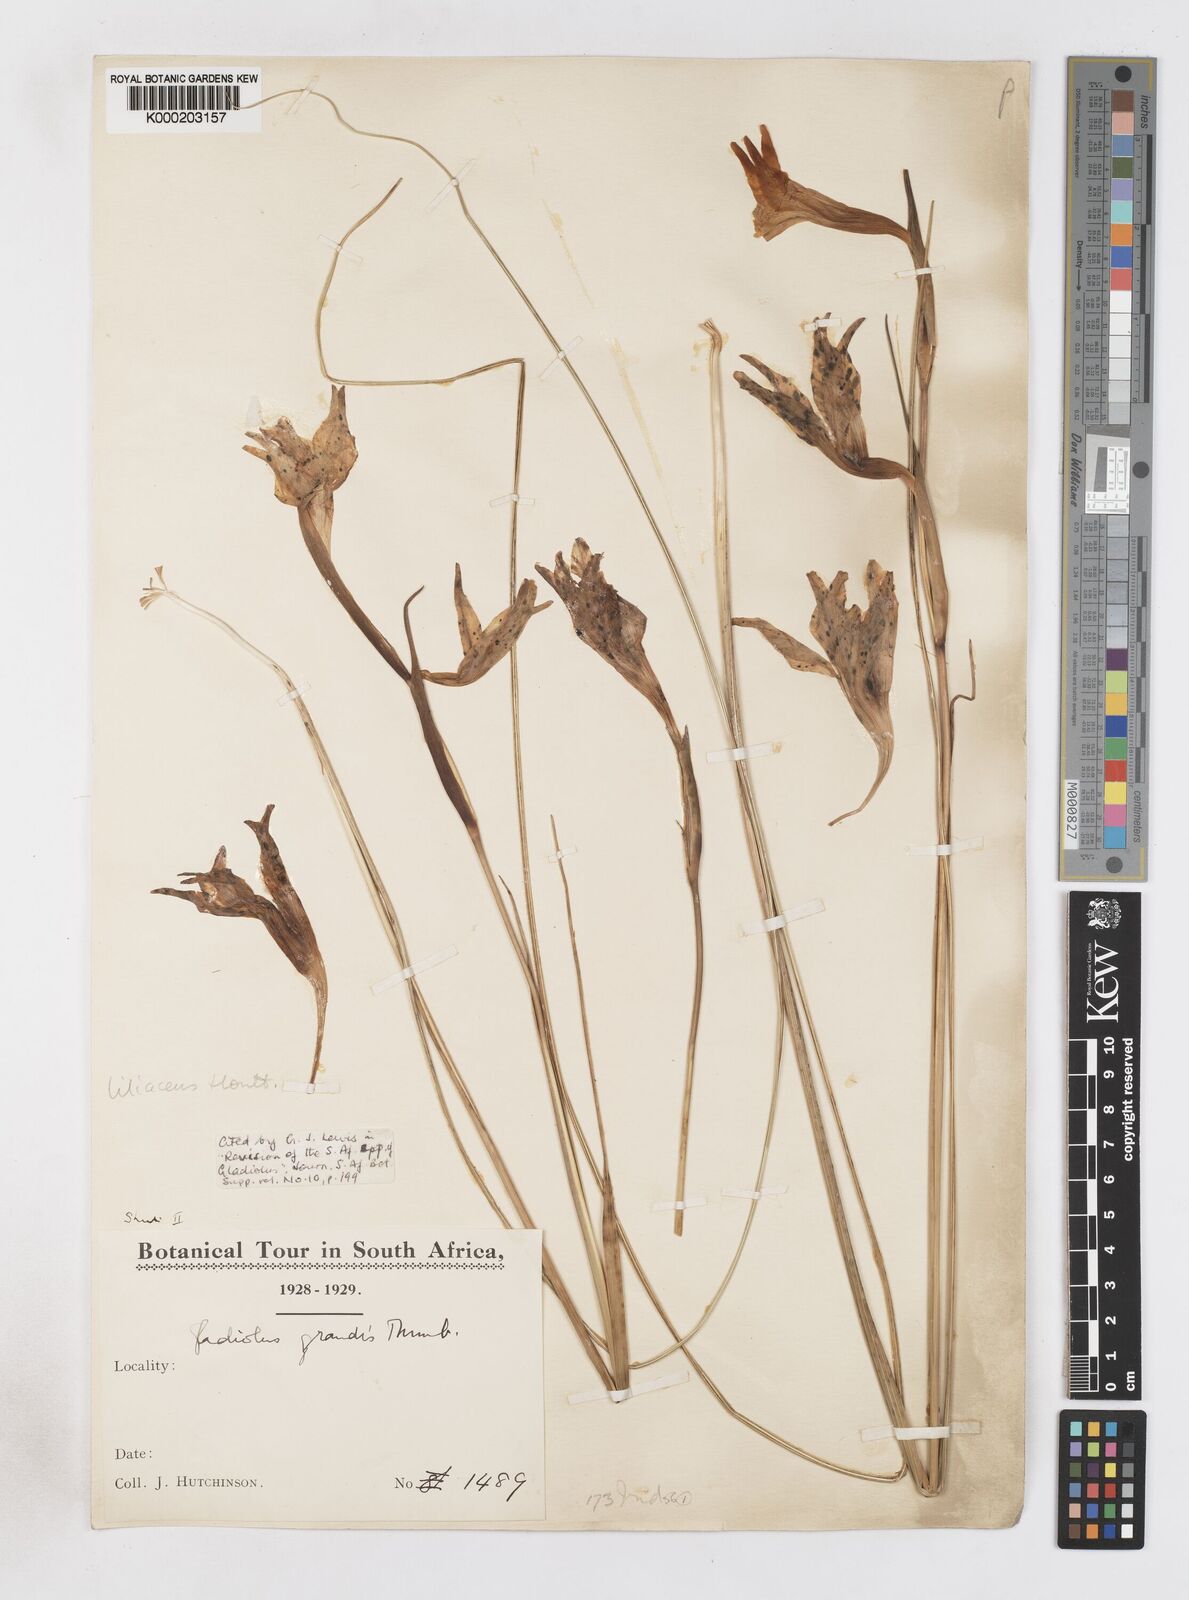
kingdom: Plantae
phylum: Tracheophyta
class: Liliopsida
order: Asparagales
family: Iridaceae
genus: Gladiolus
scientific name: Gladiolus liliaceus
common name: Large brown afrikaner
